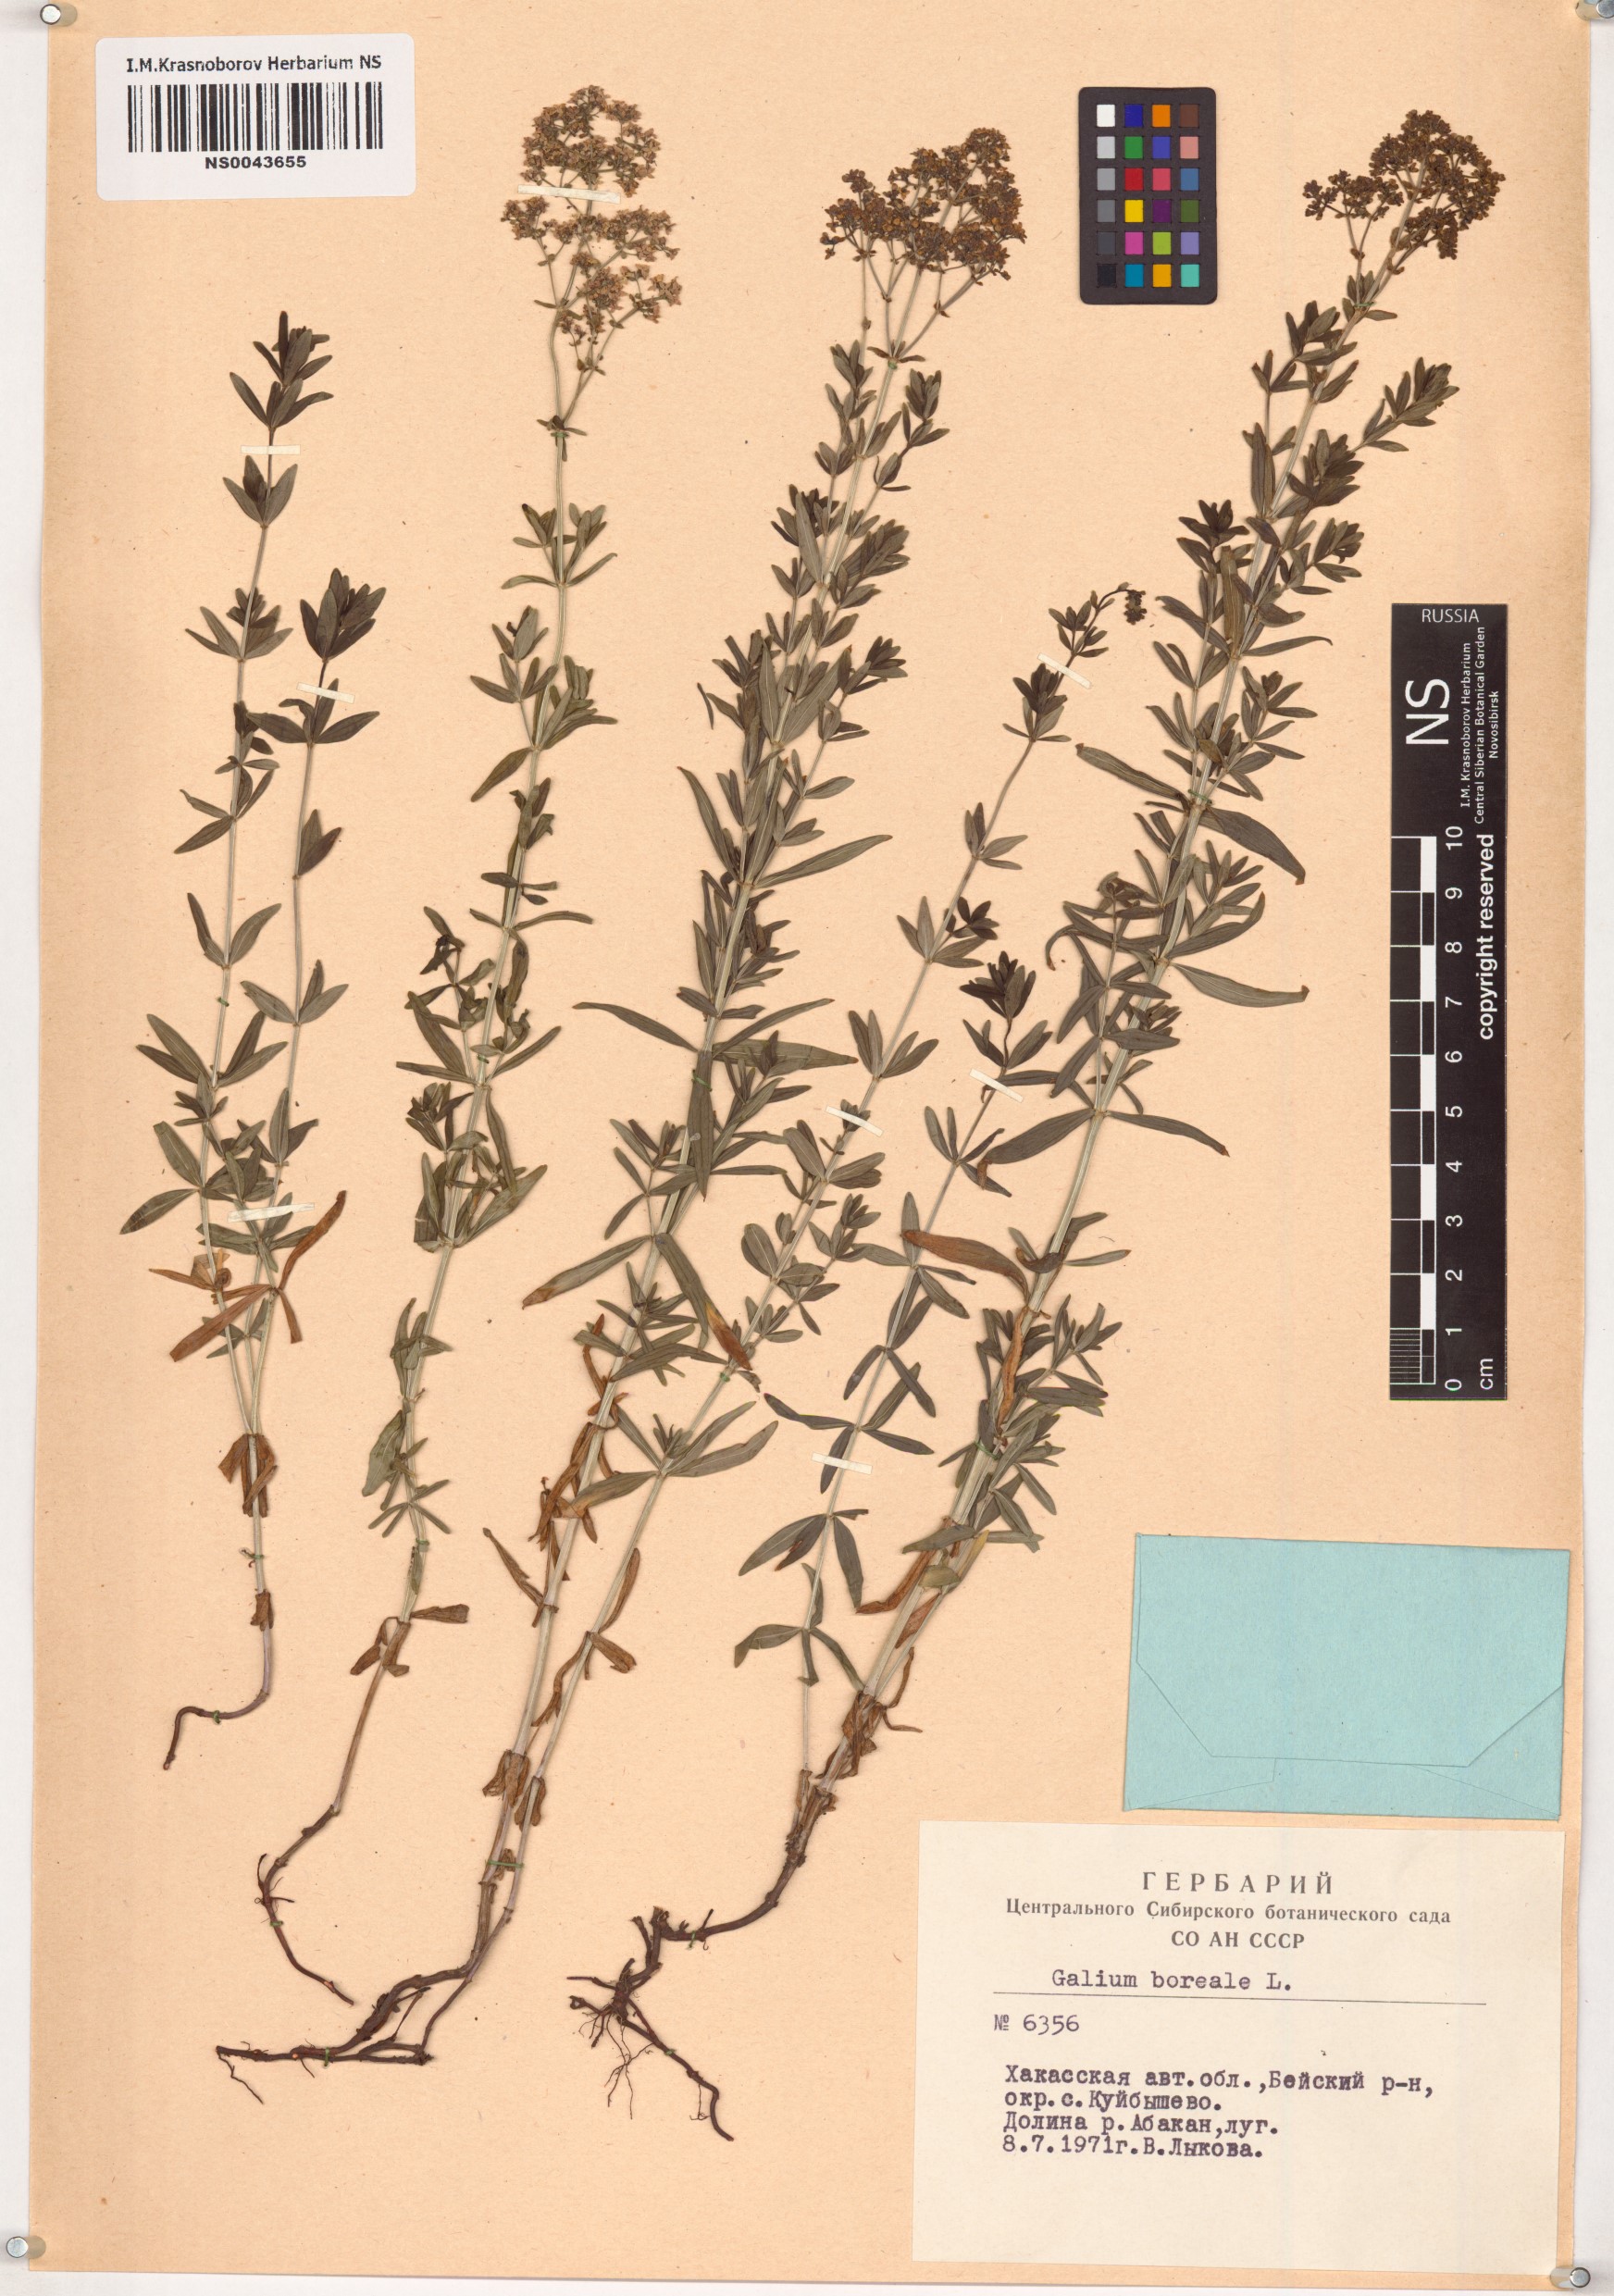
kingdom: Plantae
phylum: Tracheophyta
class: Magnoliopsida
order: Gentianales
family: Rubiaceae
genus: Galium
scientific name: Galium boreale
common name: Northern bedstraw
